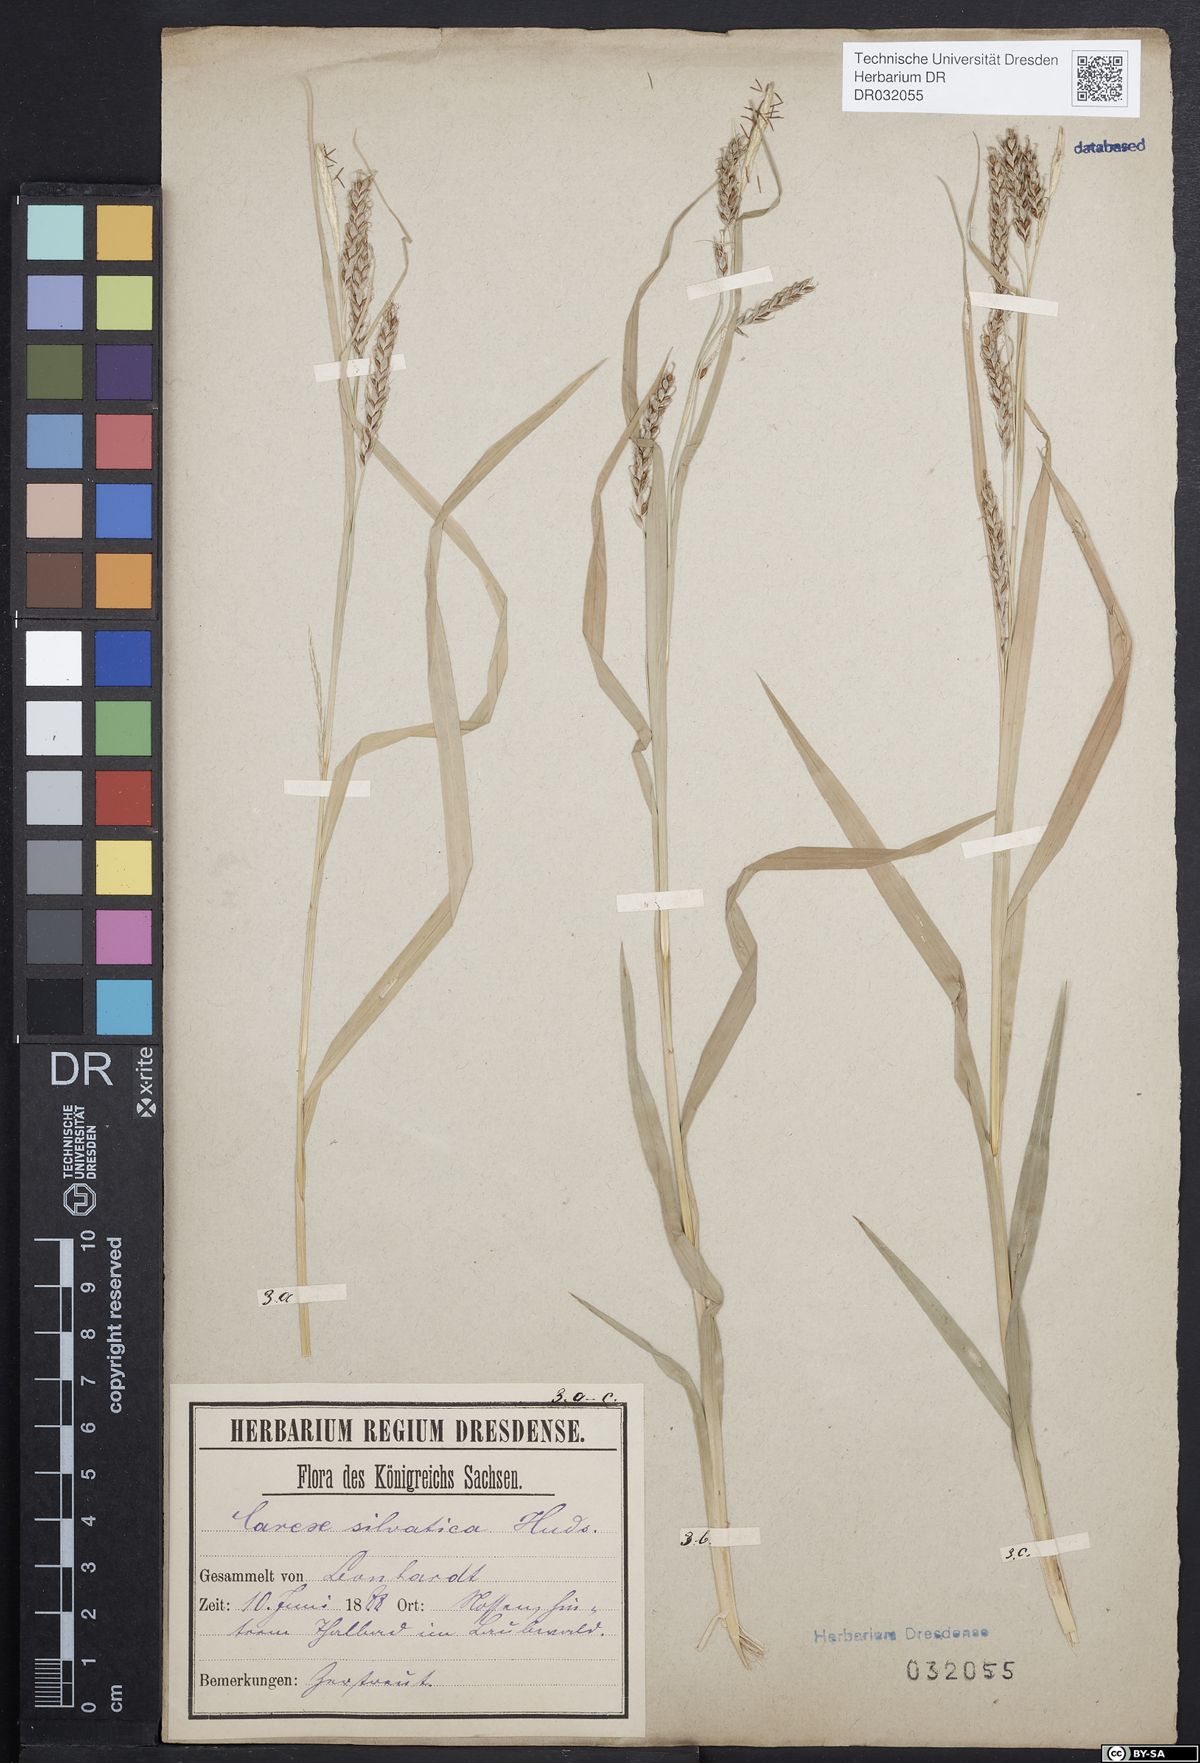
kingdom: Plantae
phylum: Tracheophyta
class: Liliopsida
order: Poales
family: Cyperaceae
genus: Carex
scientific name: Carex sylvatica
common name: Wood-sedge
